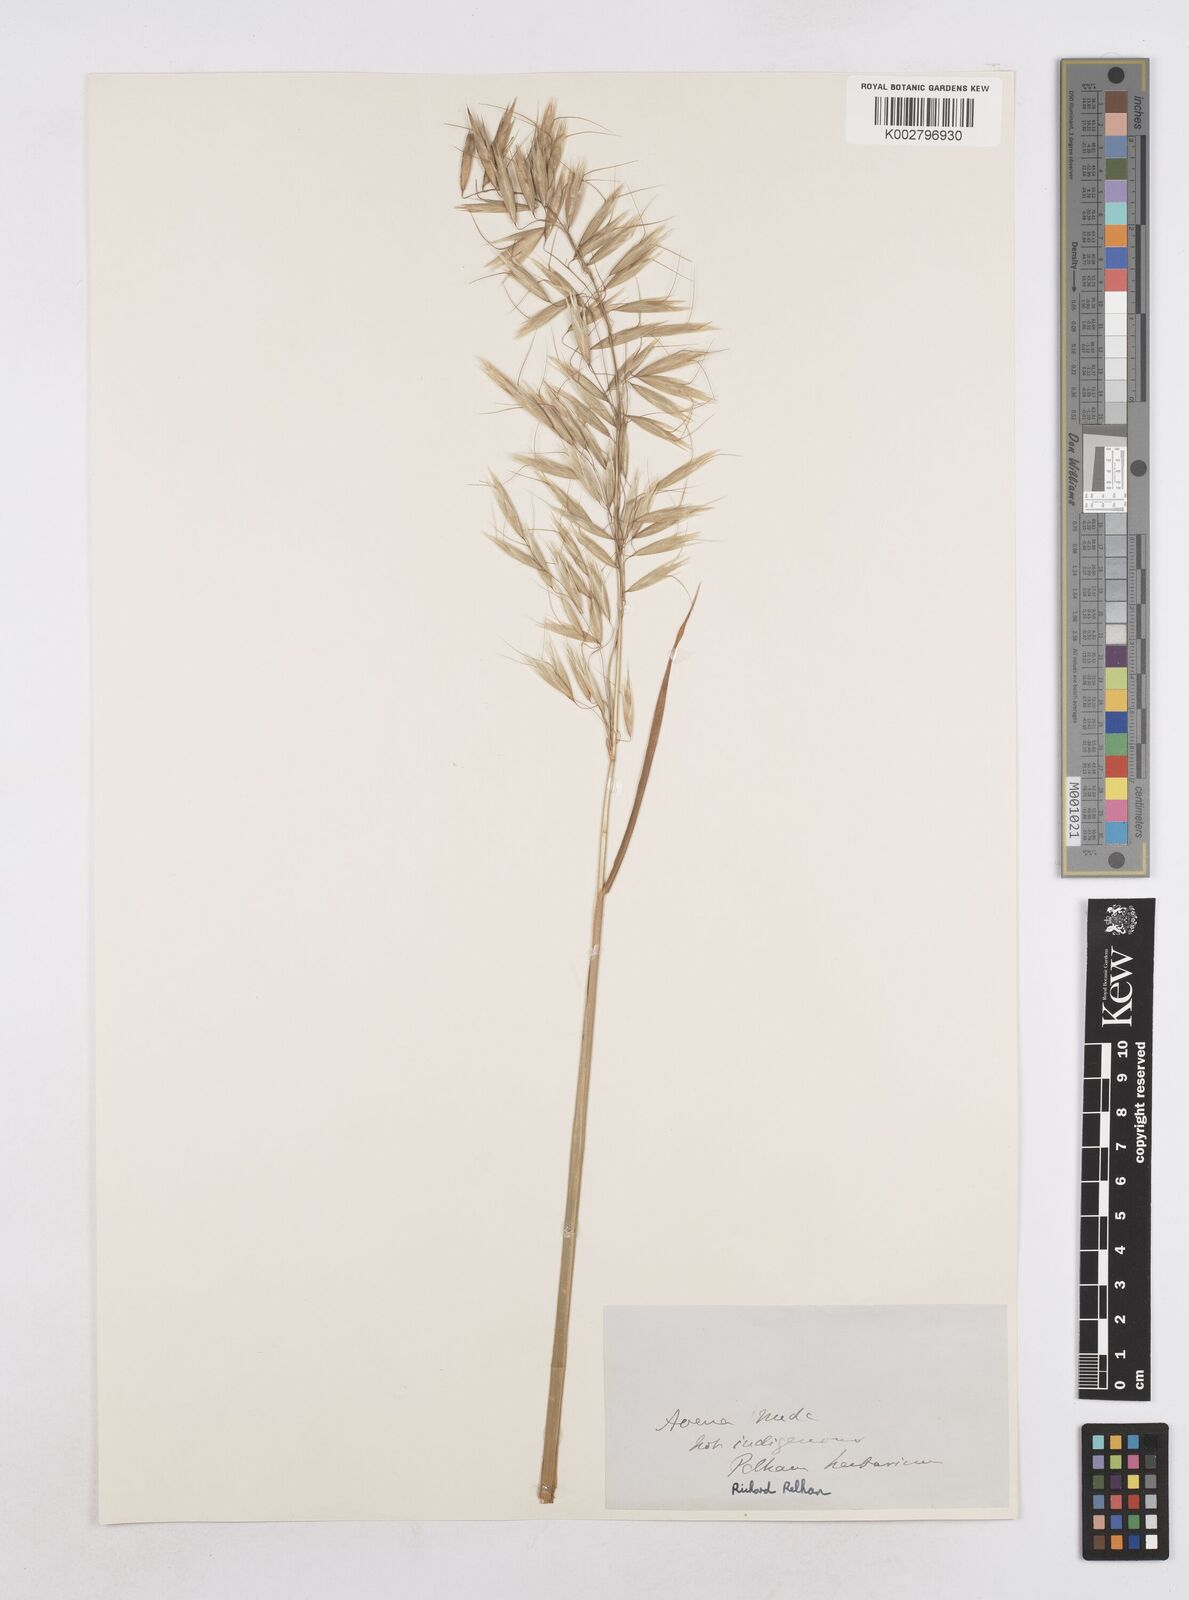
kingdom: Plantae
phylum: Tracheophyta
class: Liliopsida
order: Poales
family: Poaceae
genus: Avena
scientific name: Avena nuda
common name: Naked oat
